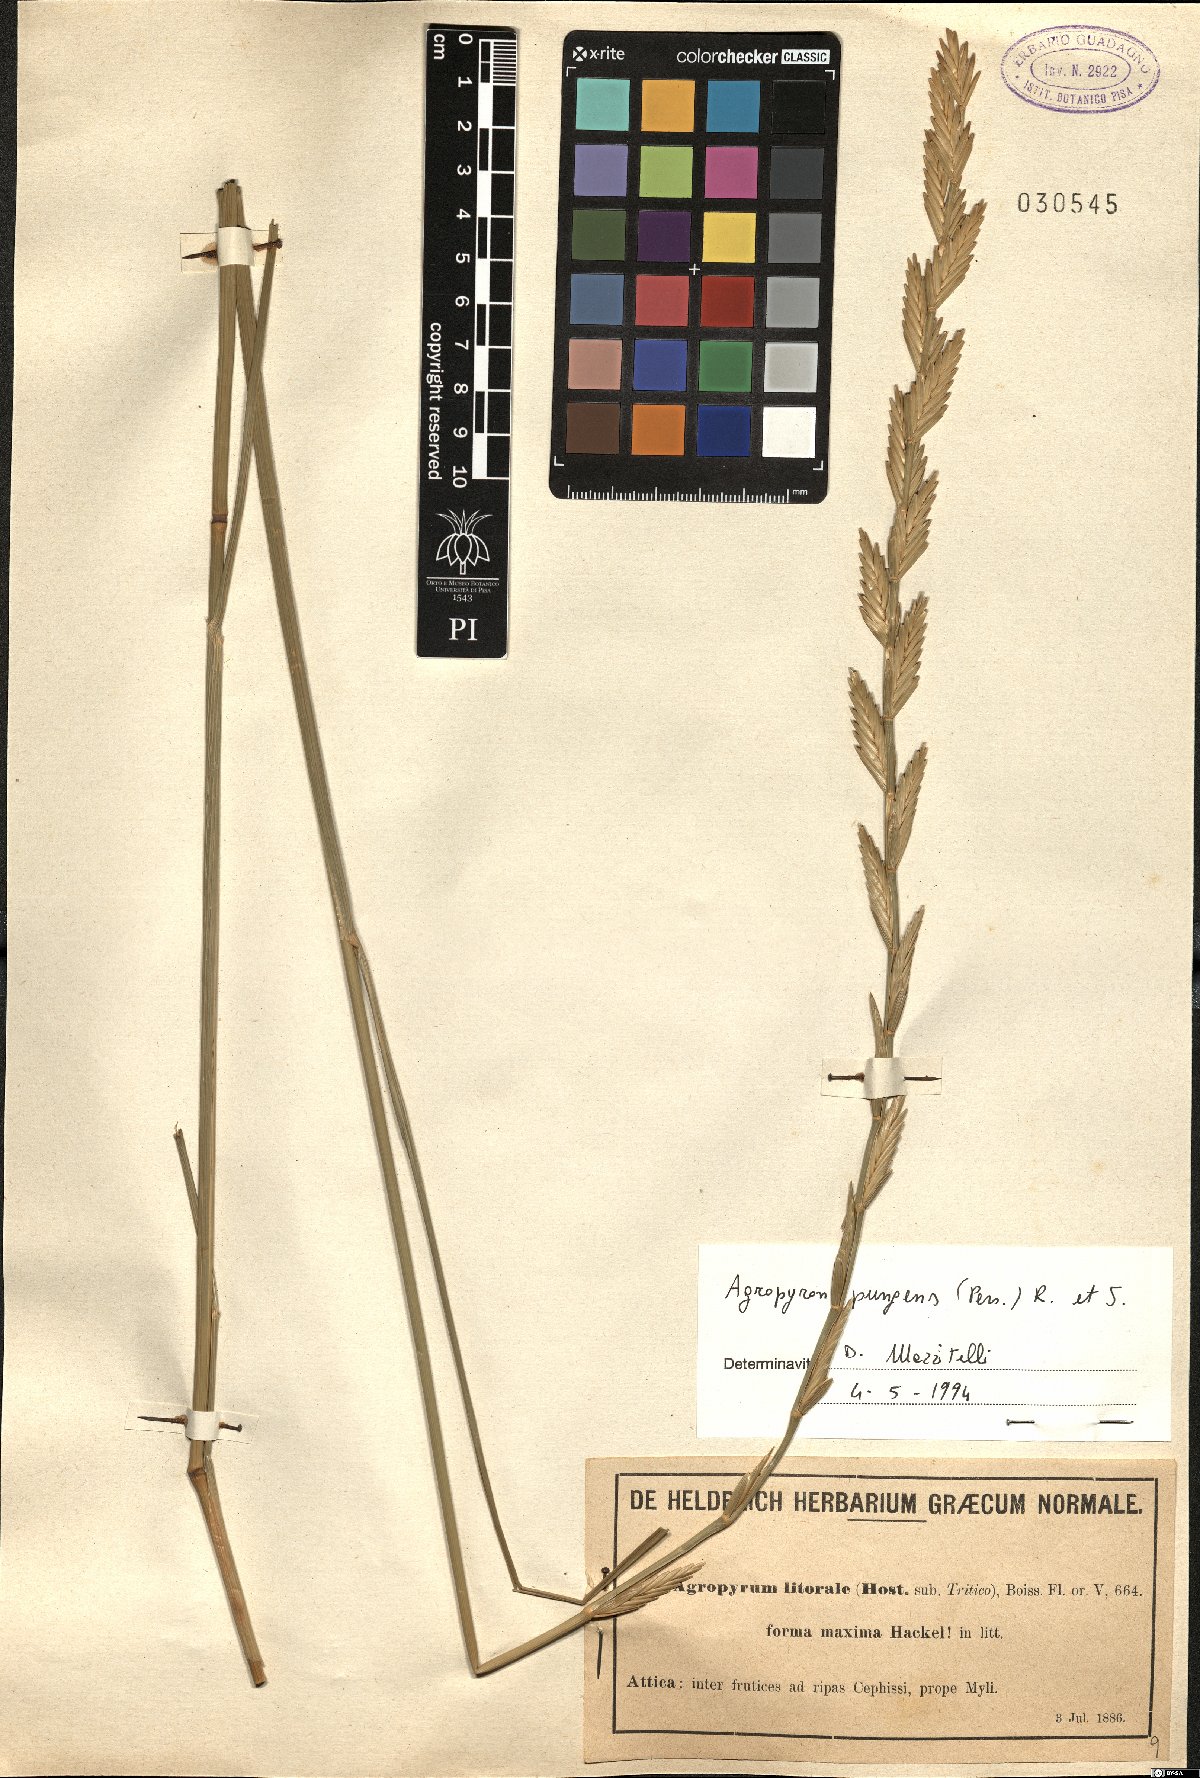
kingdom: Plantae
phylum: Tracheophyta
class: Liliopsida
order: Poales
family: Poaceae
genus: Elymus
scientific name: Elymus pungens
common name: Sea couch
